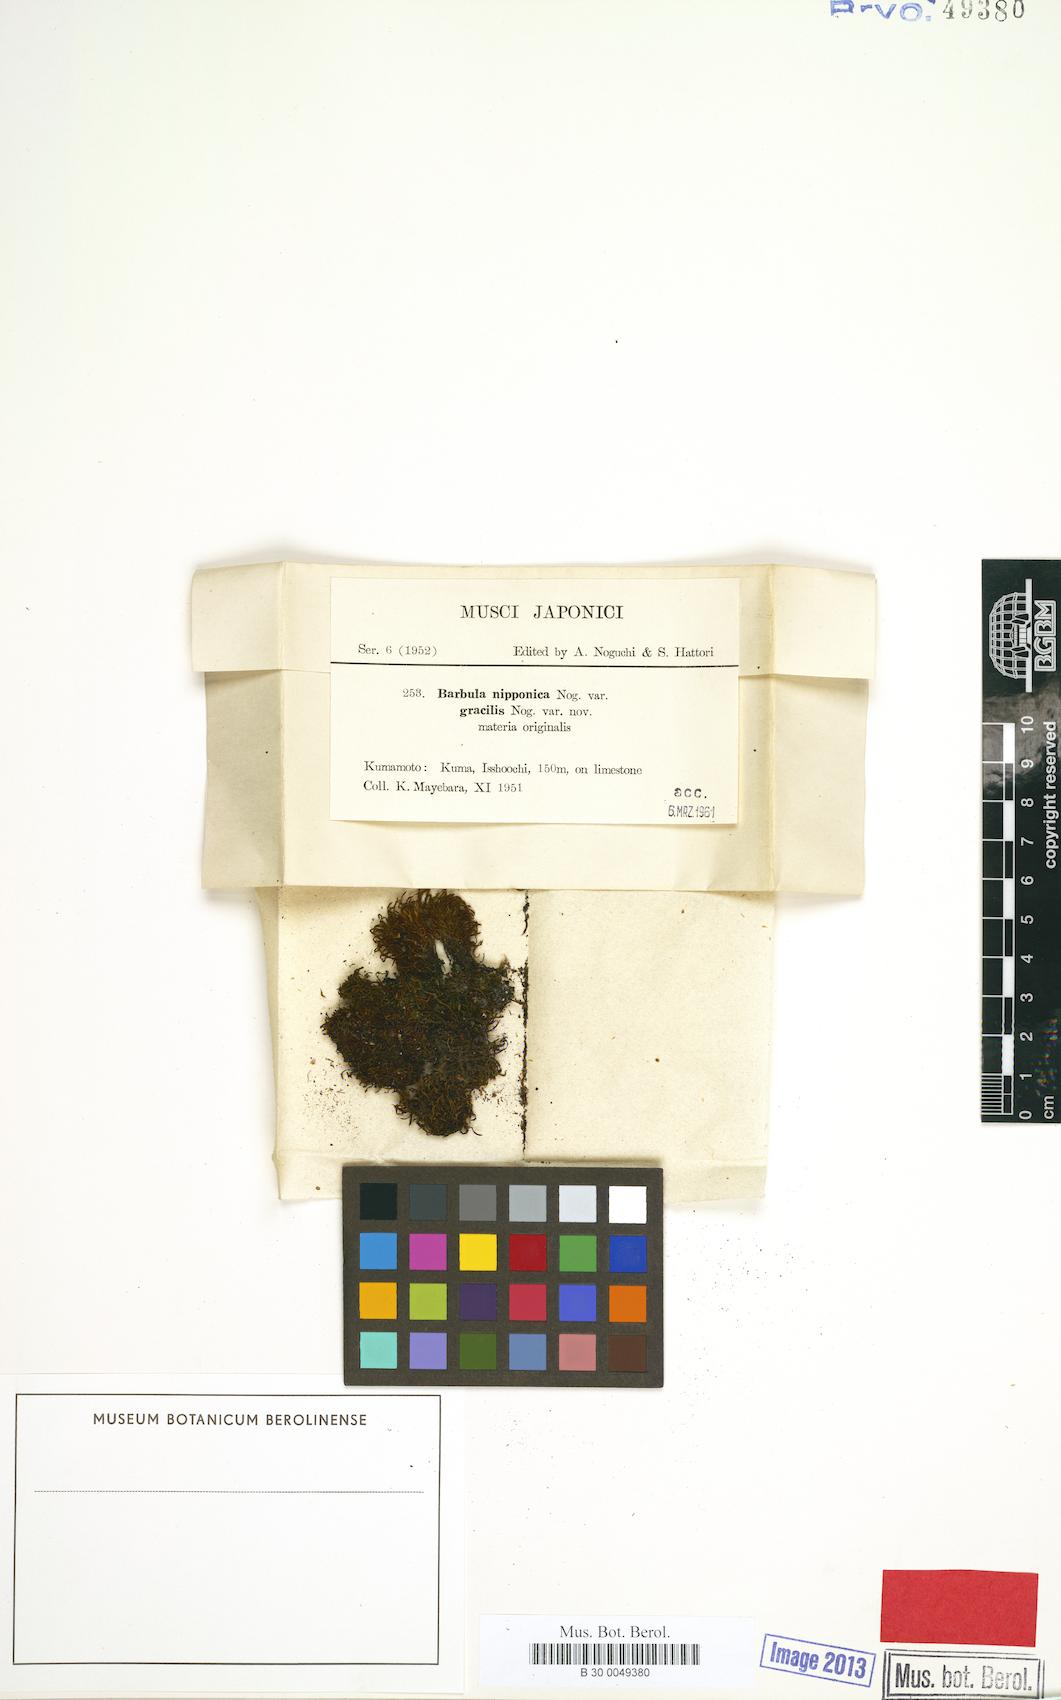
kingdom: Plantae
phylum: Bryophyta
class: Bryopsida
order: Pottiales
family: Pottiaceae
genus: Vinealobryum
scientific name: Vinealobryum vineale
